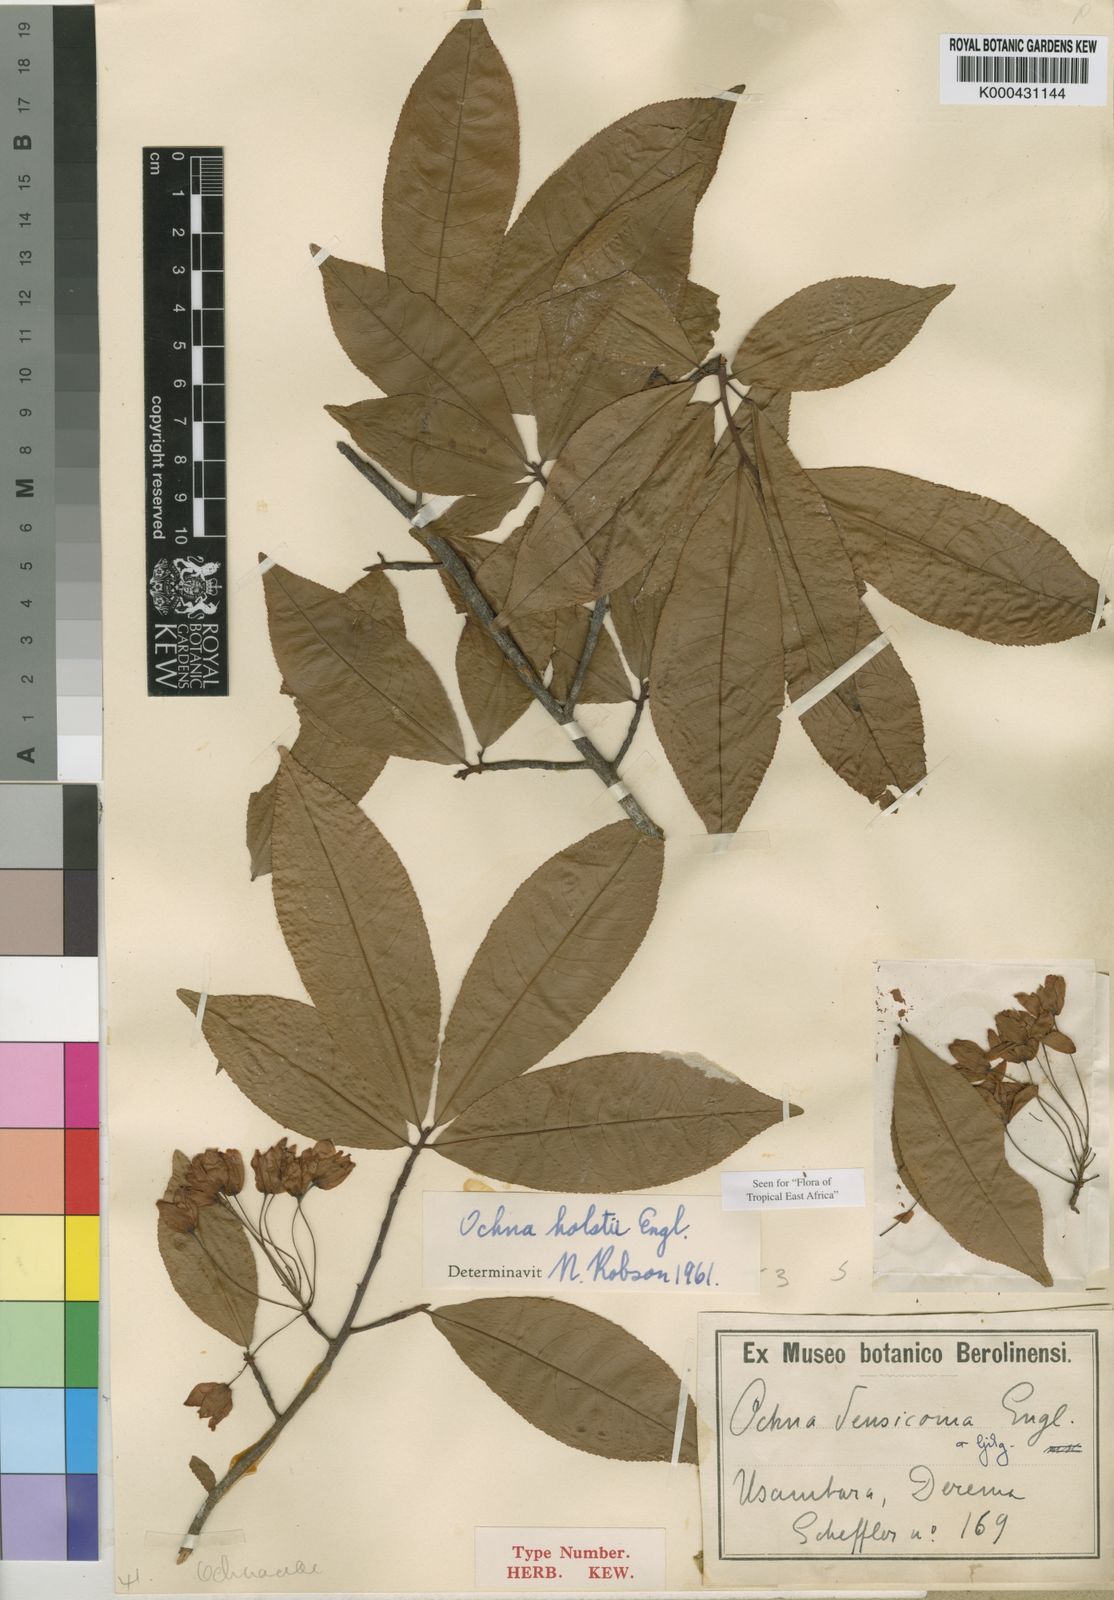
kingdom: Plantae
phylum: Tracheophyta
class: Magnoliopsida
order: Malpighiales
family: Ochnaceae
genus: Ochna
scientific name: Ochna holstii
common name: Red ironwood
